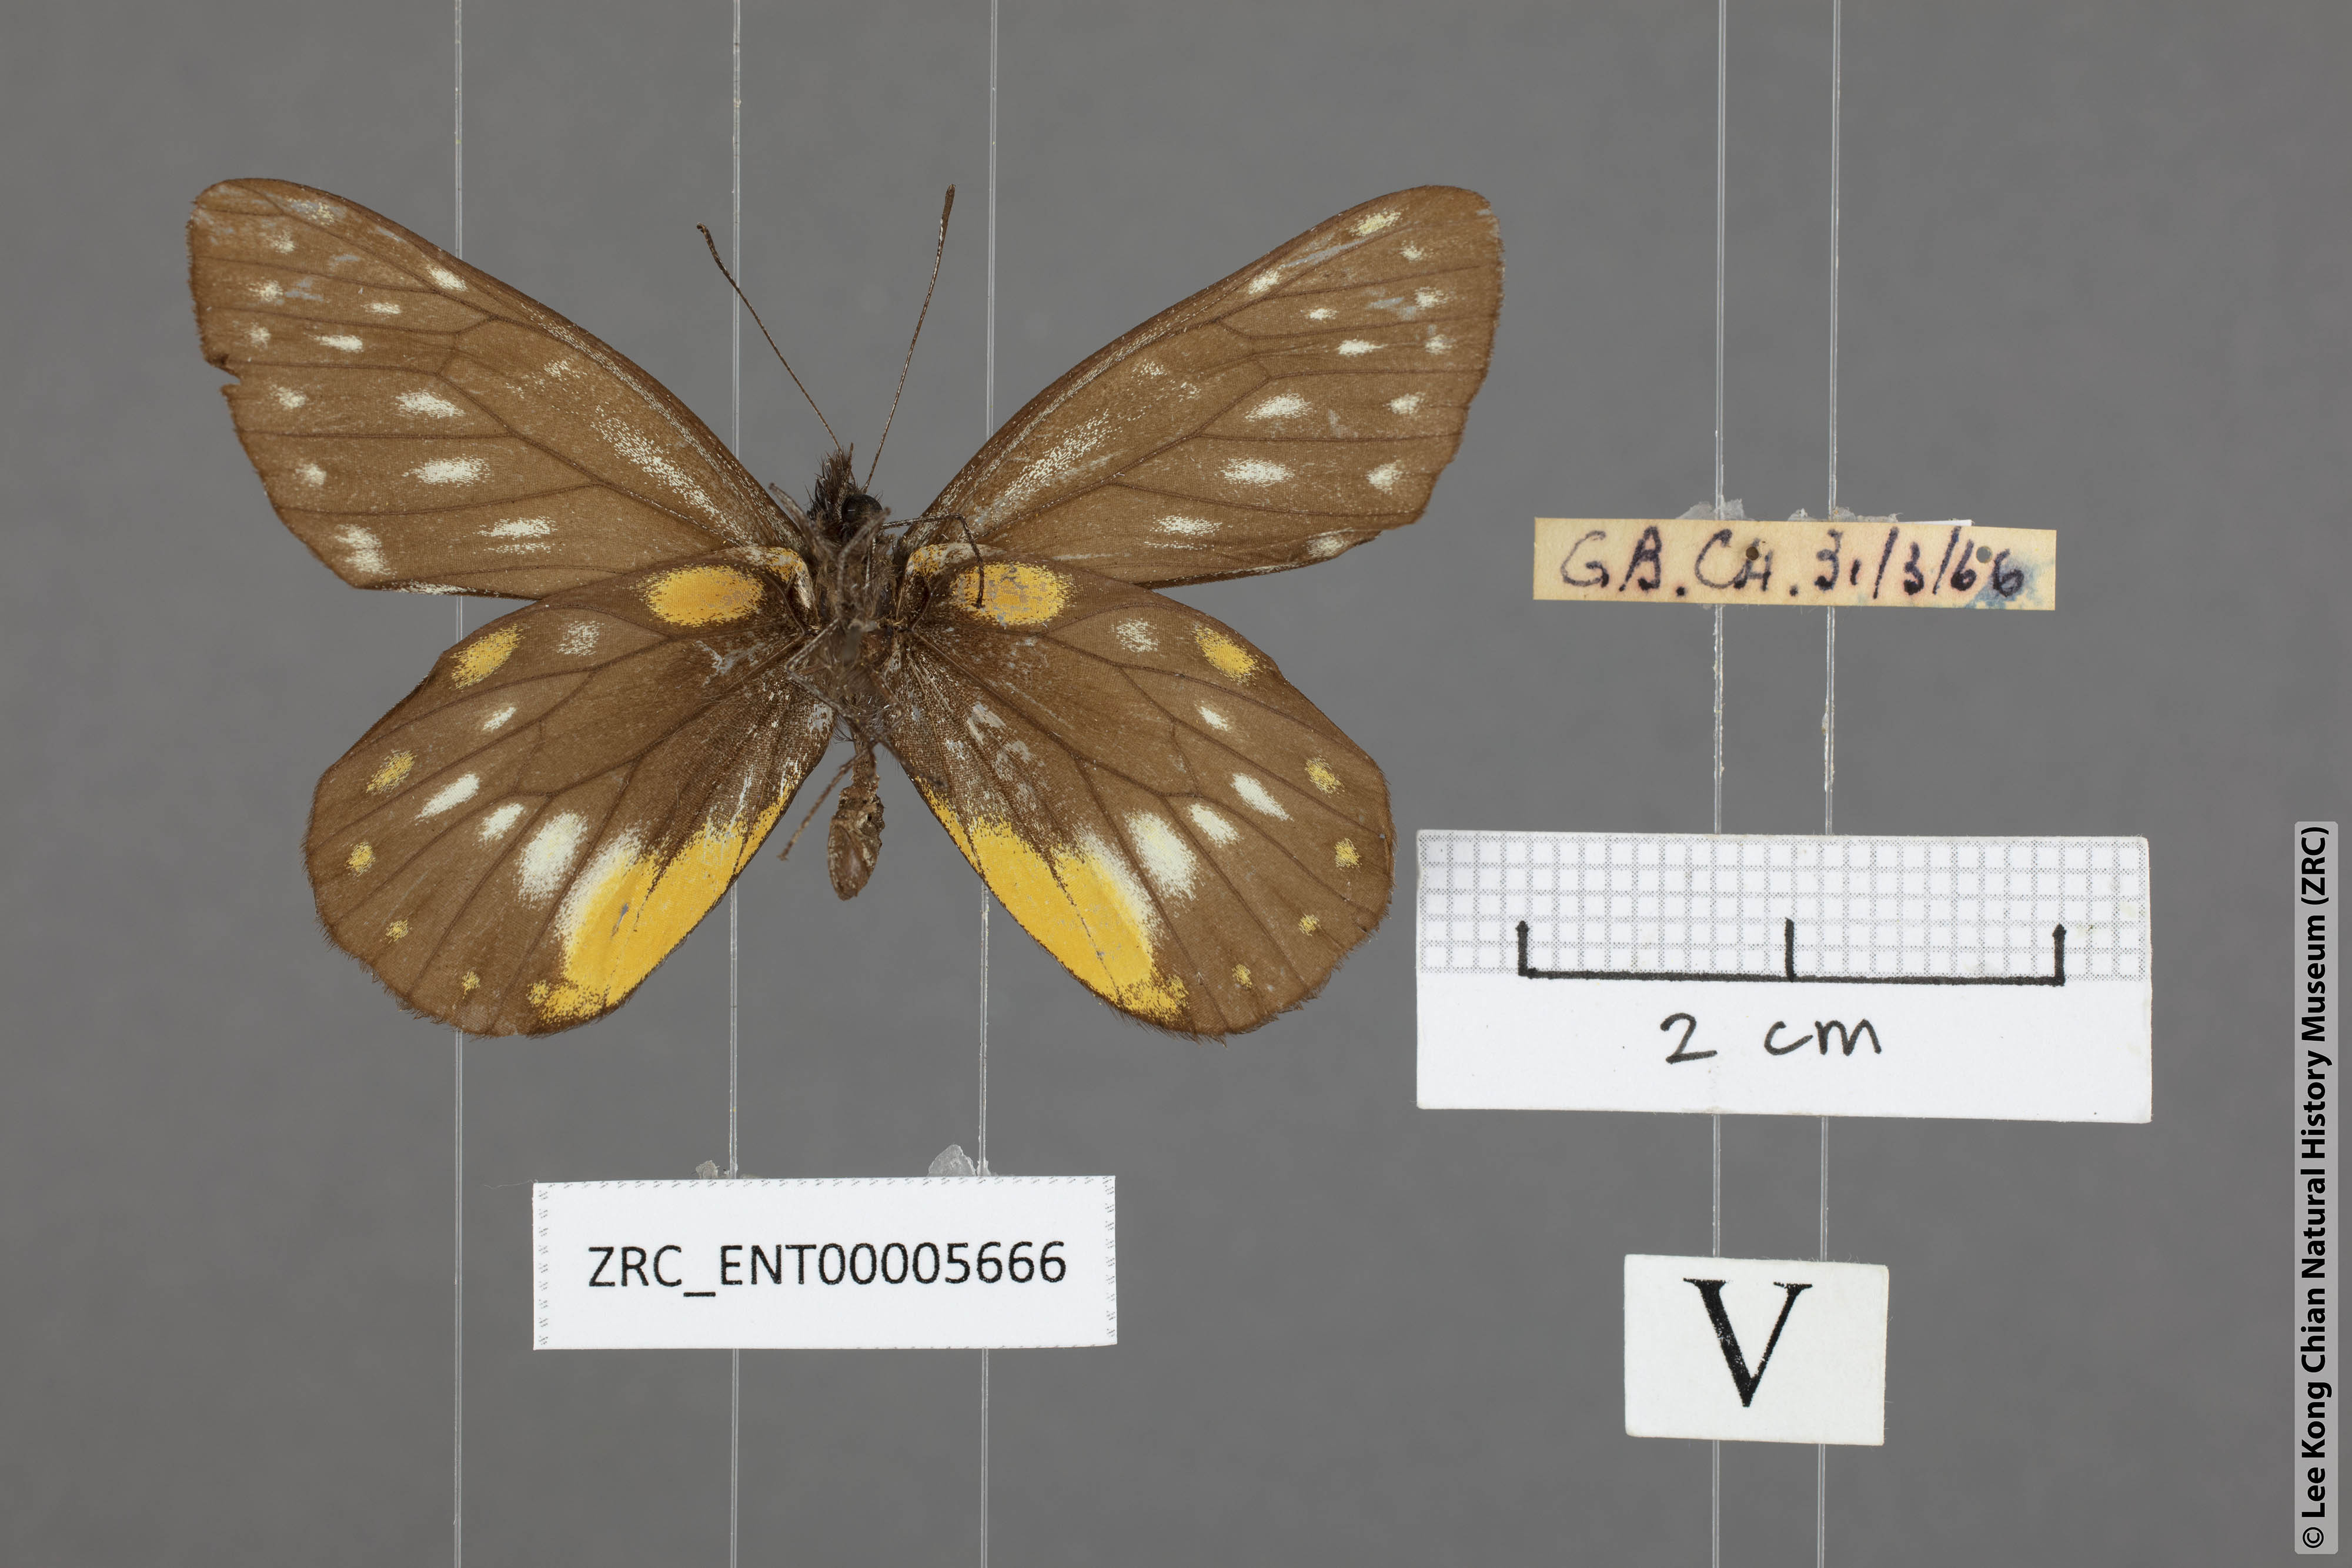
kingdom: Animalia
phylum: Arthropoda
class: Insecta
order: Lepidoptera
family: Pieridae
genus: Delias
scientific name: Delias belladonna
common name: Hill jezebel
